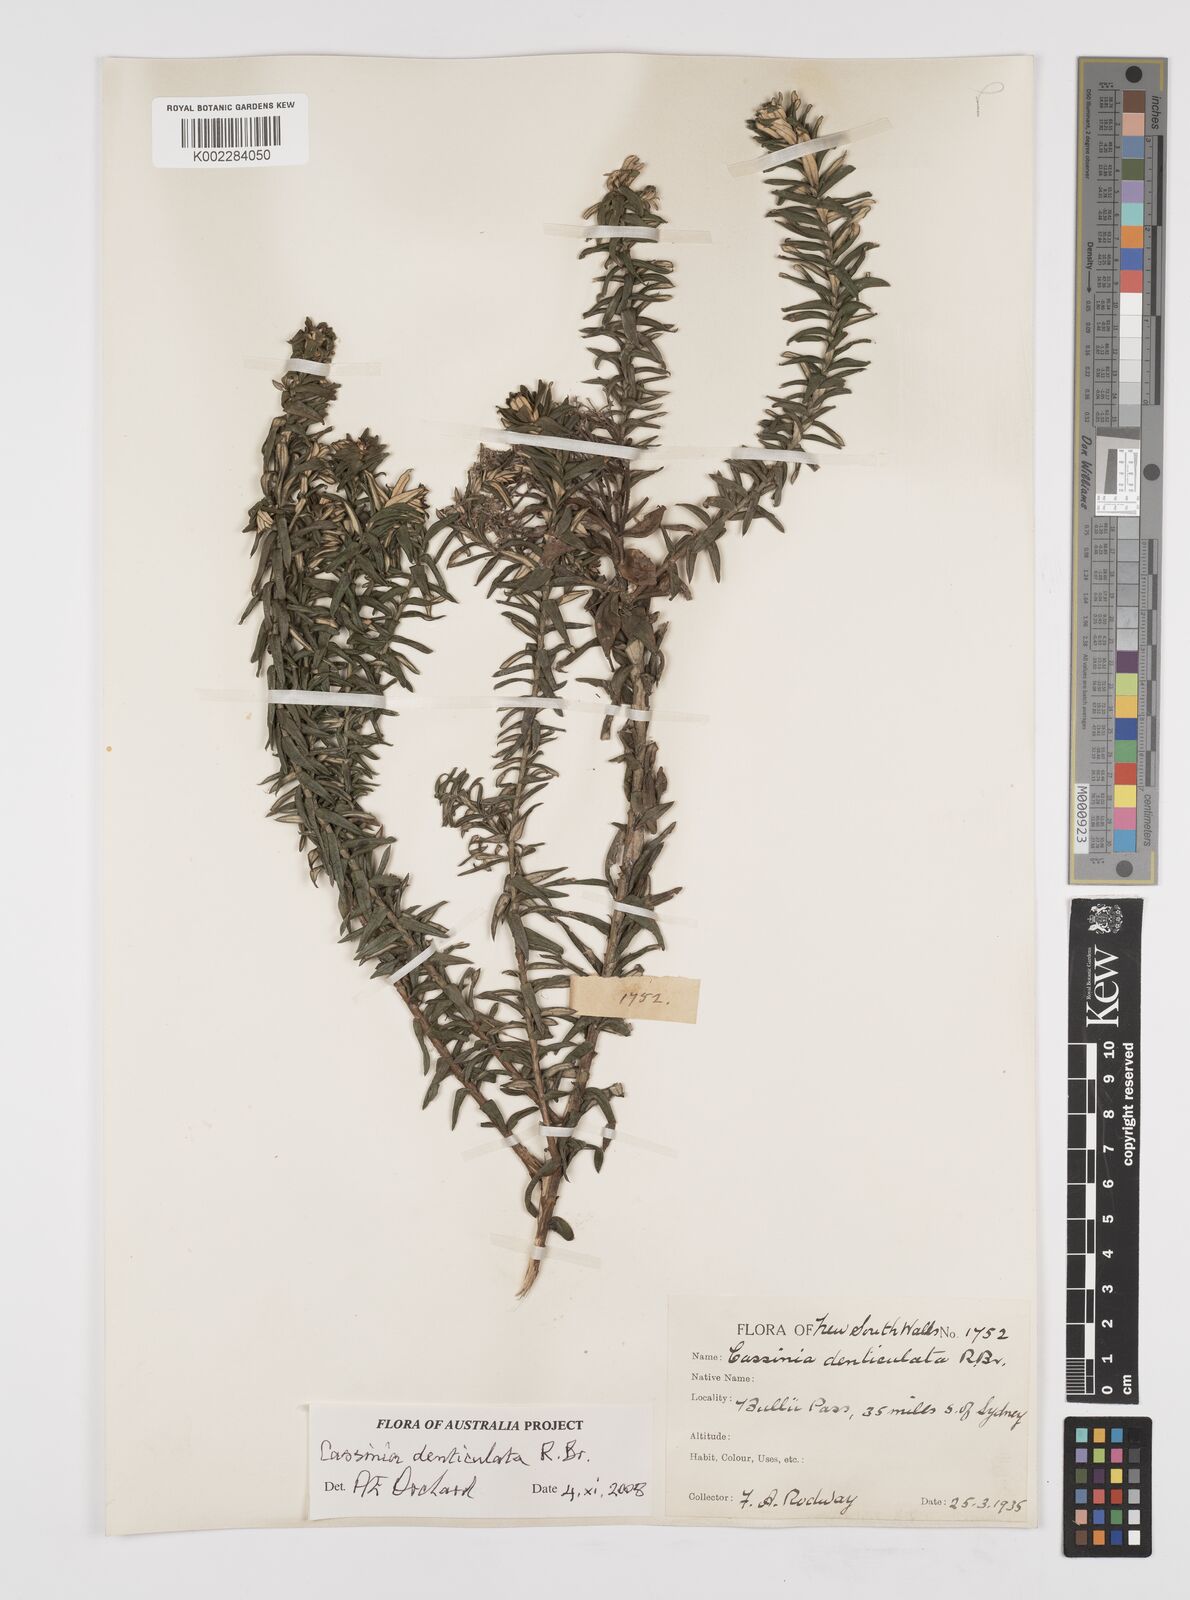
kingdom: Plantae
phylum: Tracheophyta
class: Magnoliopsida
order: Asterales
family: Asteraceae
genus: Cassinia
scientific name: Cassinia denticulata
